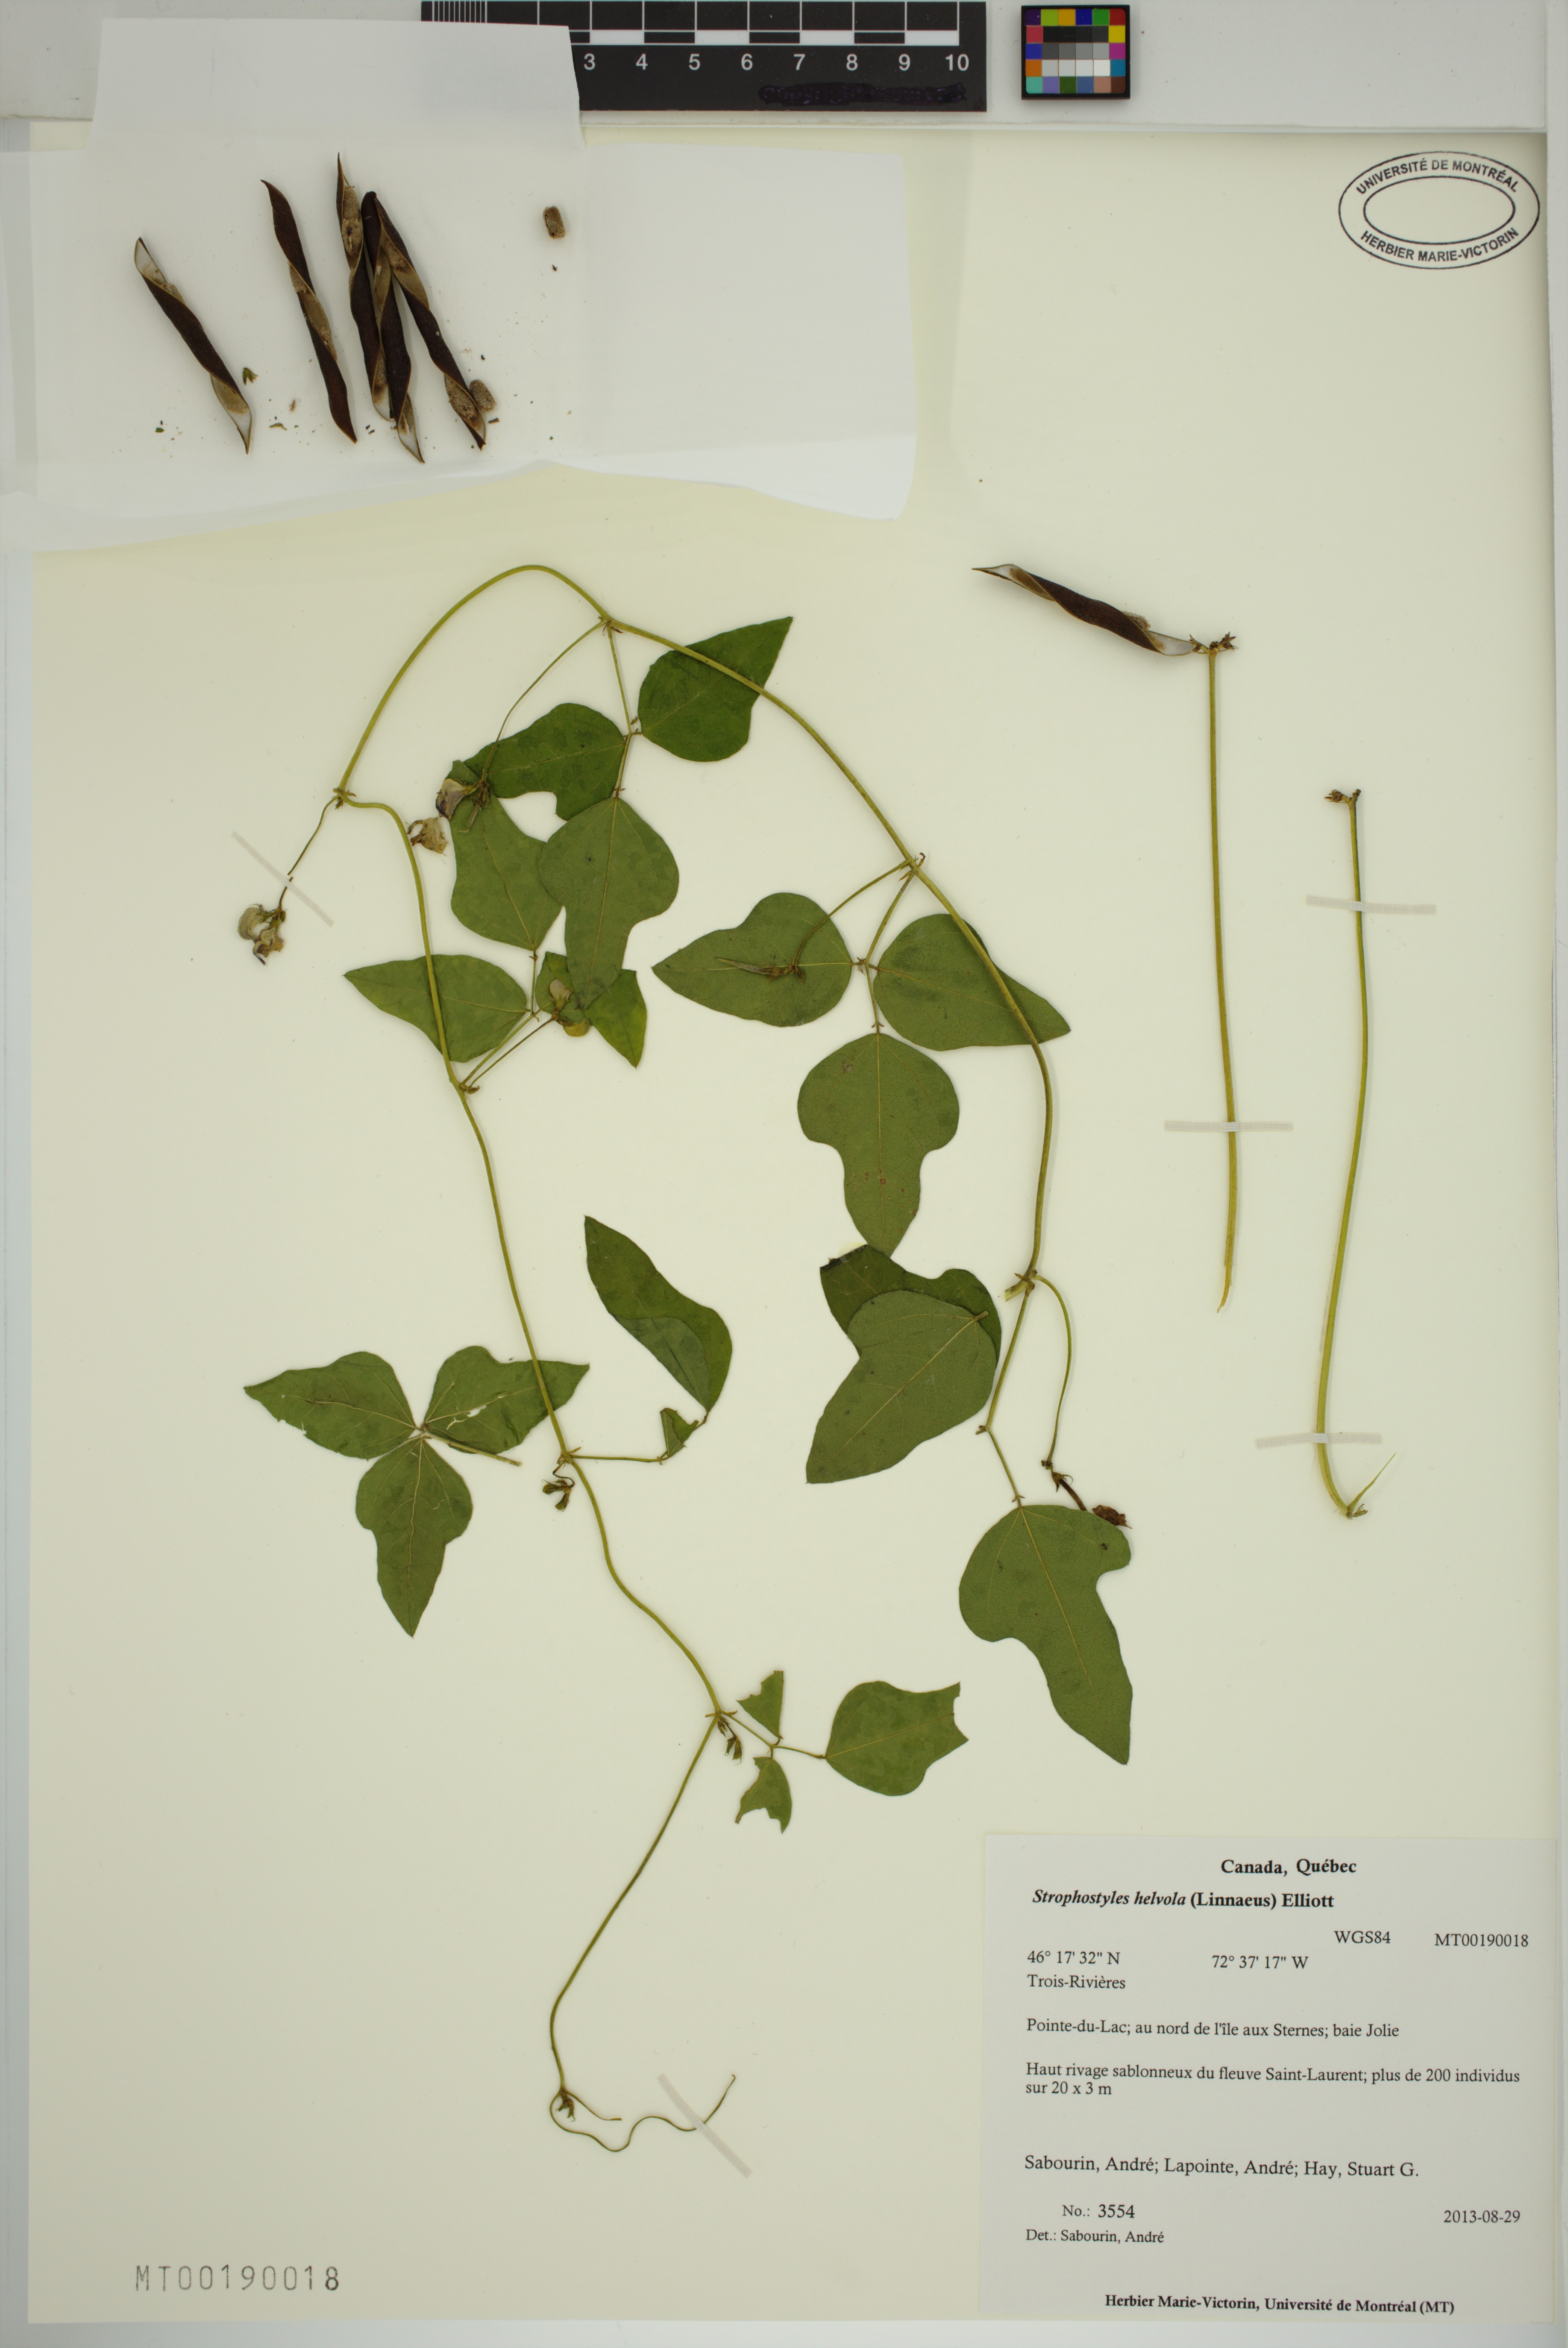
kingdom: Plantae
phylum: Tracheophyta
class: Magnoliopsida
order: Fabales
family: Fabaceae
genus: Strophostyles
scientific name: Strophostyles helvola
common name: Trailing wild bean
